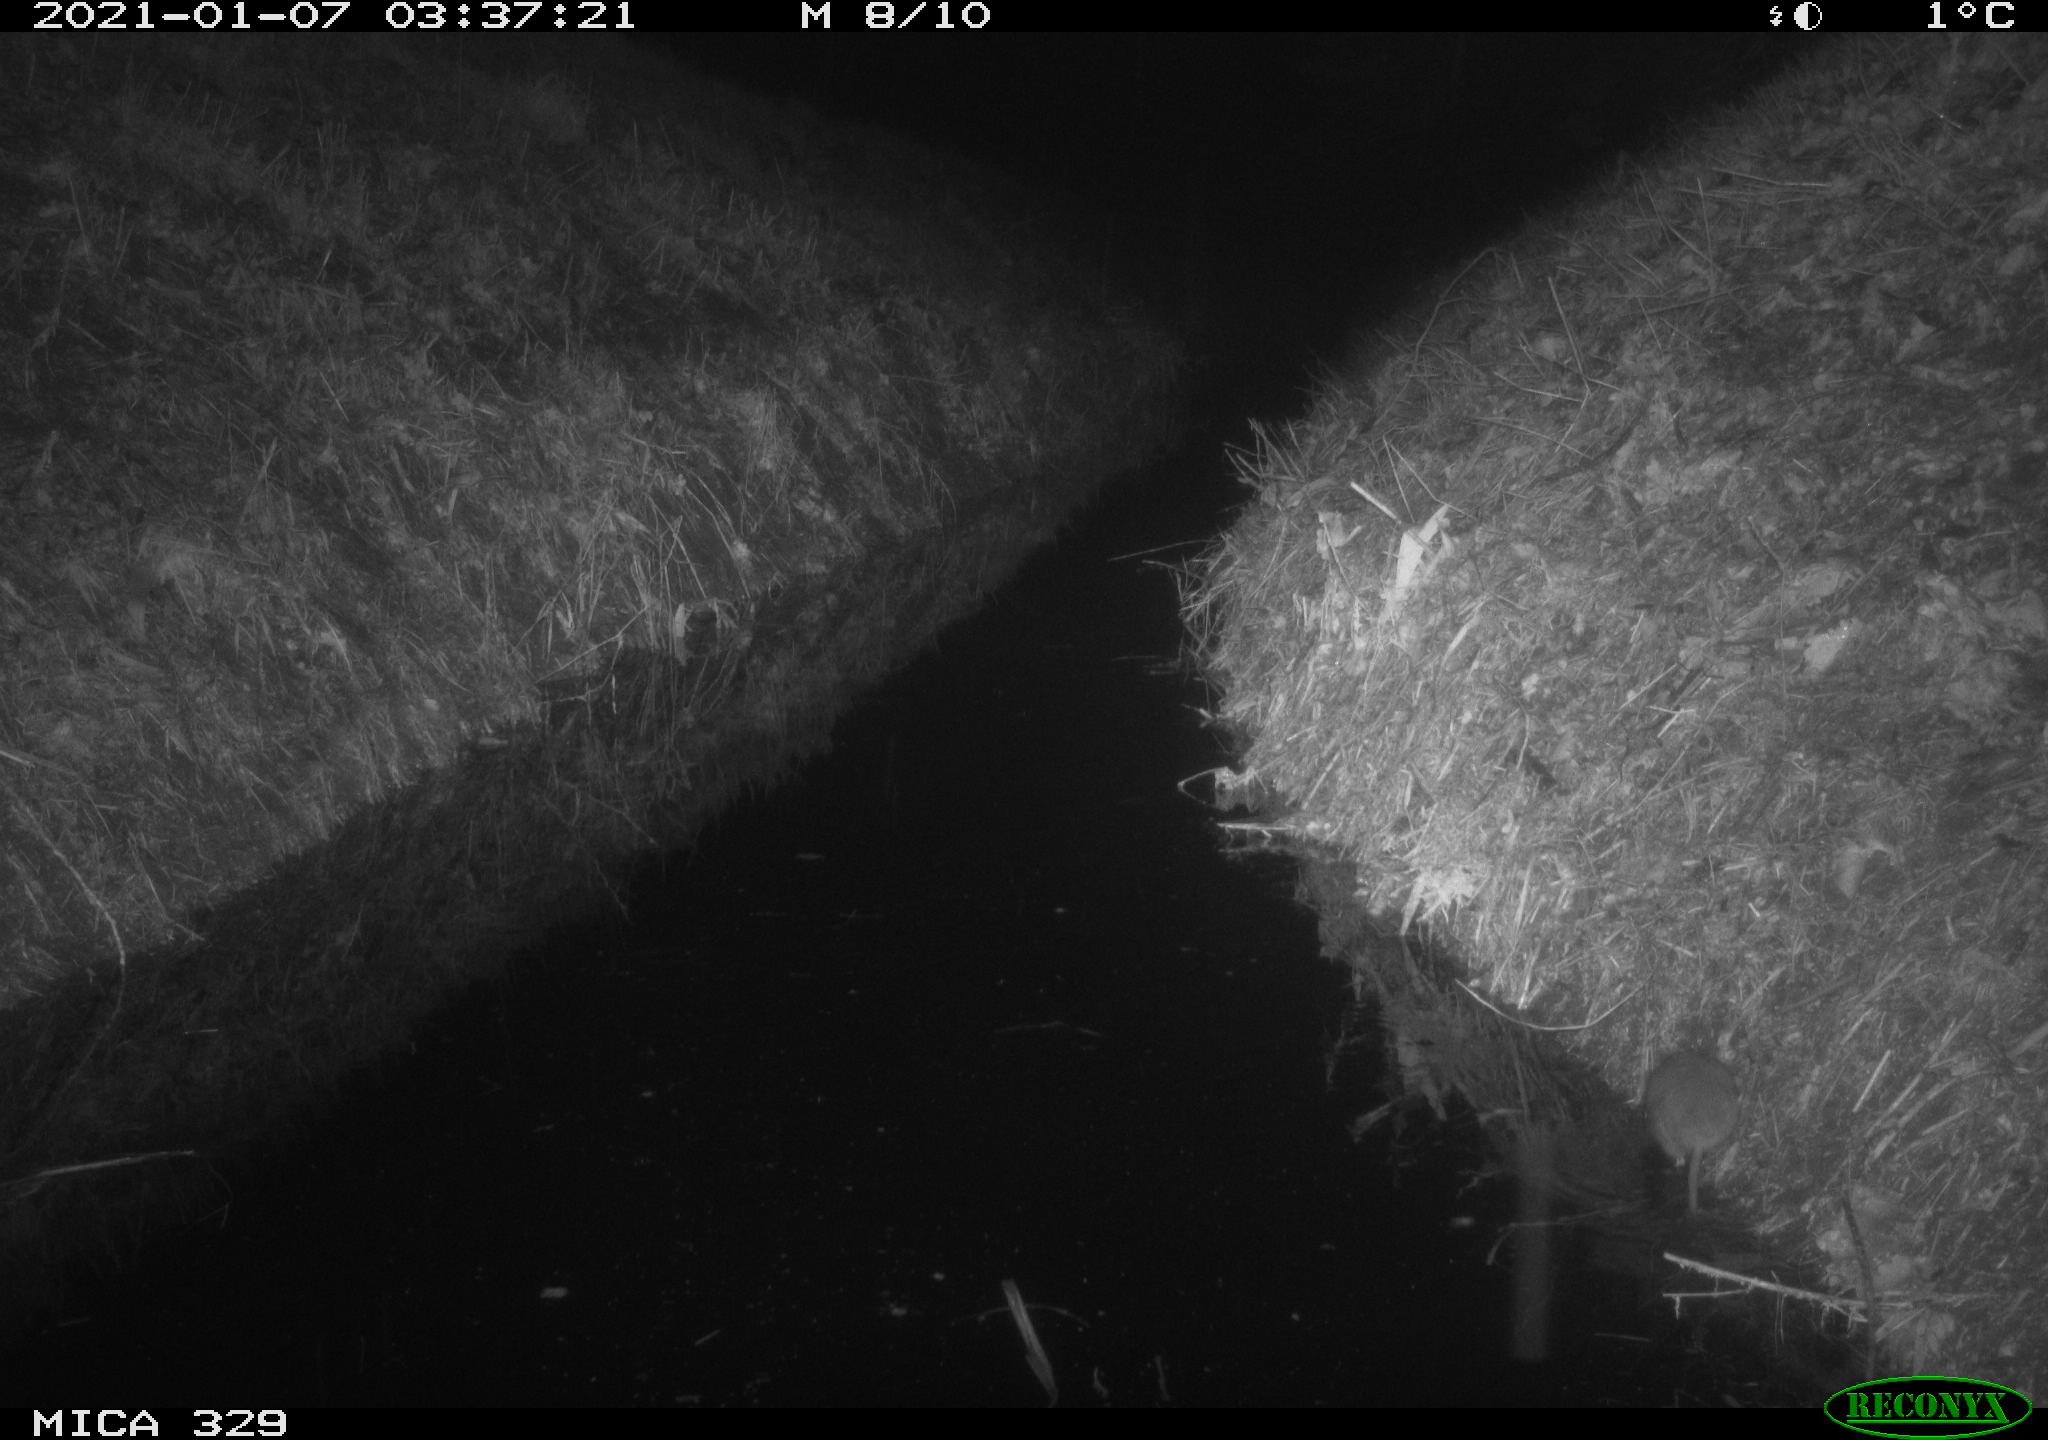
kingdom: Animalia
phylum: Chordata
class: Mammalia
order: Rodentia
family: Muridae
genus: Rattus
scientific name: Rattus norvegicus
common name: Brown rat
